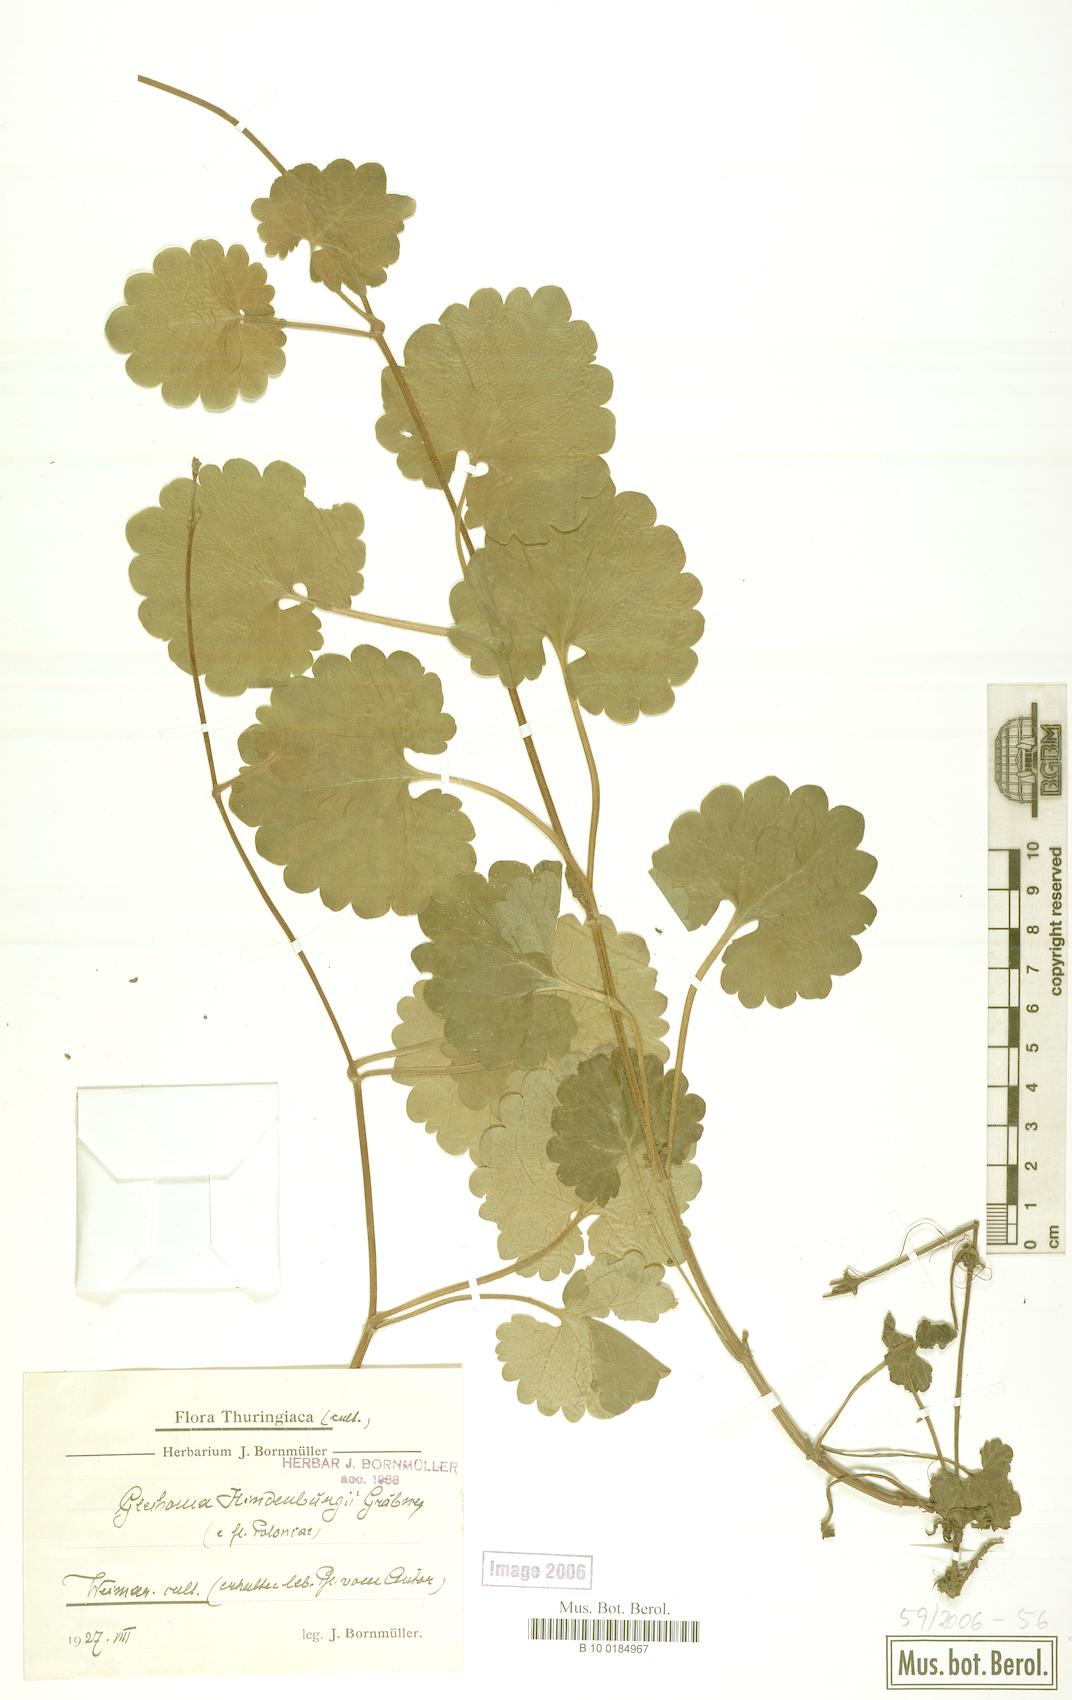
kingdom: Plantae
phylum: Tracheophyta
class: Magnoliopsida
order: Lamiales
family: Lamiaceae
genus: Glechoma
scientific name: Glechoma pannonica
